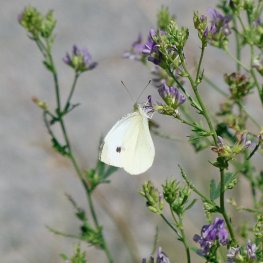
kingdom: Animalia
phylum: Arthropoda
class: Insecta
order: Lepidoptera
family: Pieridae
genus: Pieris
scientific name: Pieris rapae
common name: Cabbage White
